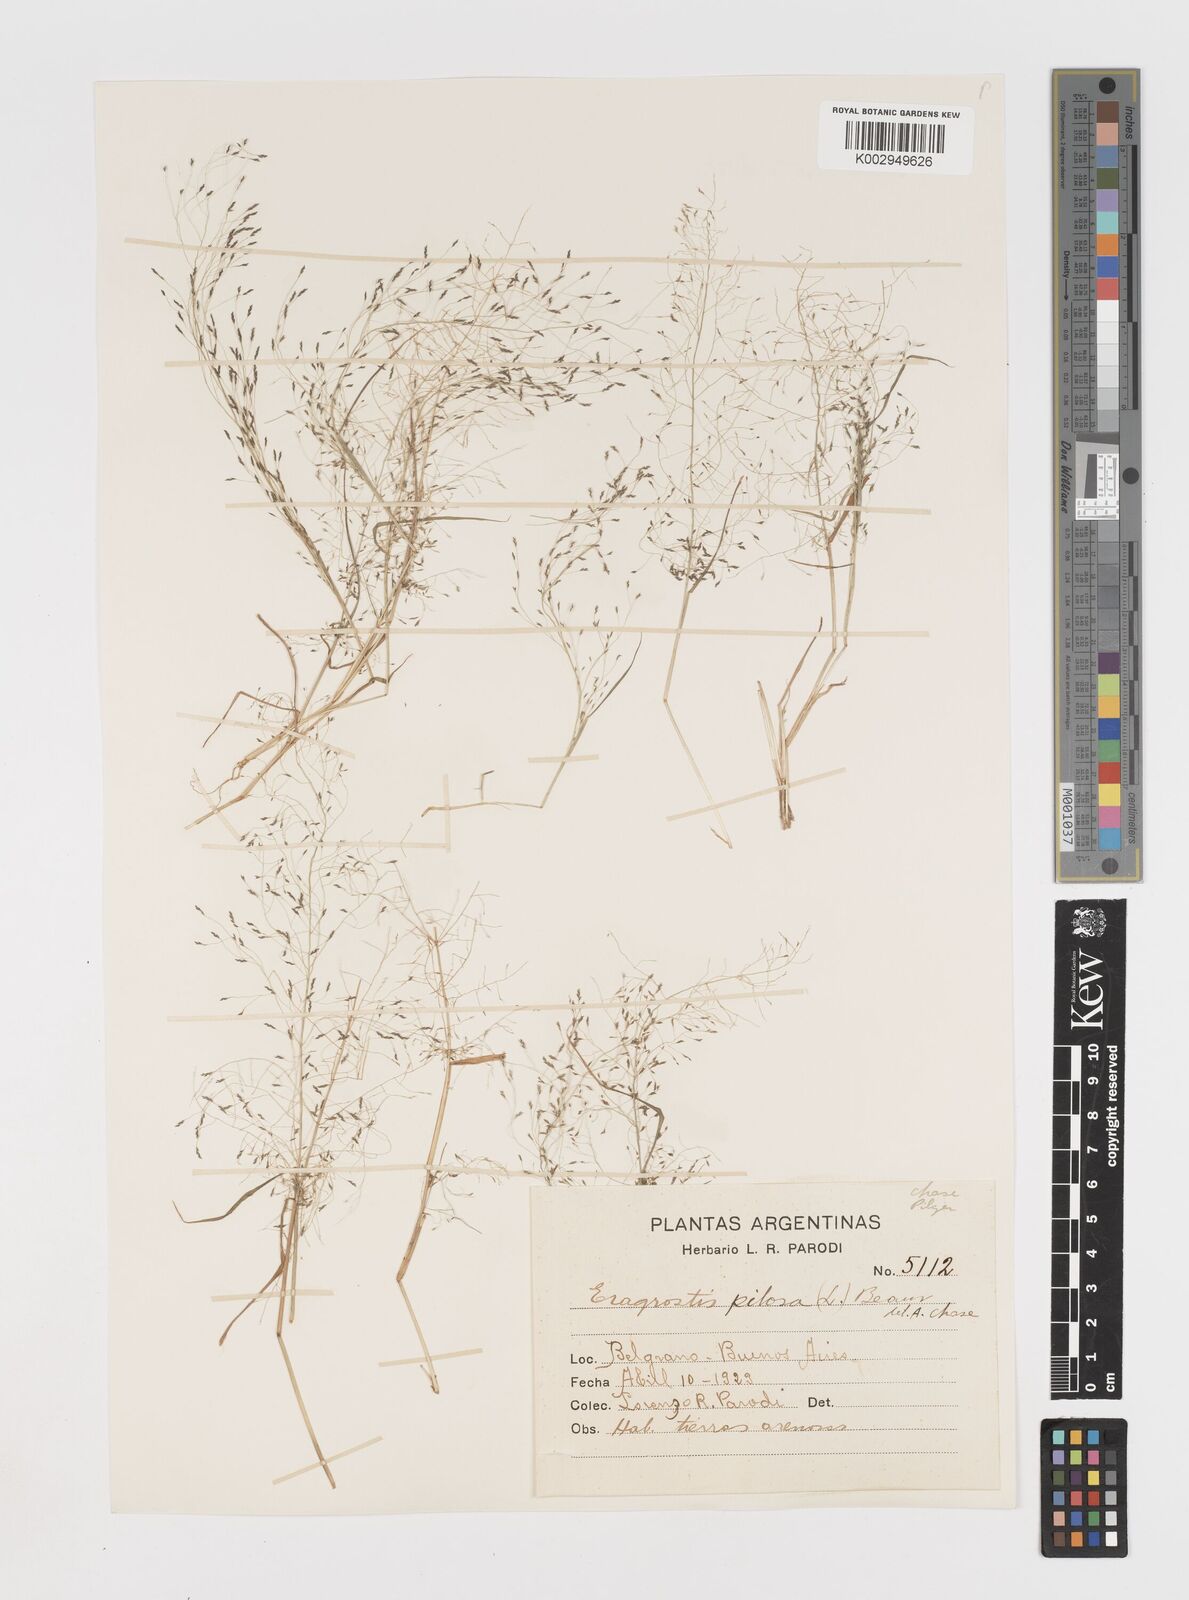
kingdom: Plantae
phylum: Tracheophyta
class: Liliopsida
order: Poales
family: Poaceae
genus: Eragrostis
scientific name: Eragrostis pilosa
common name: Indian lovegrass
